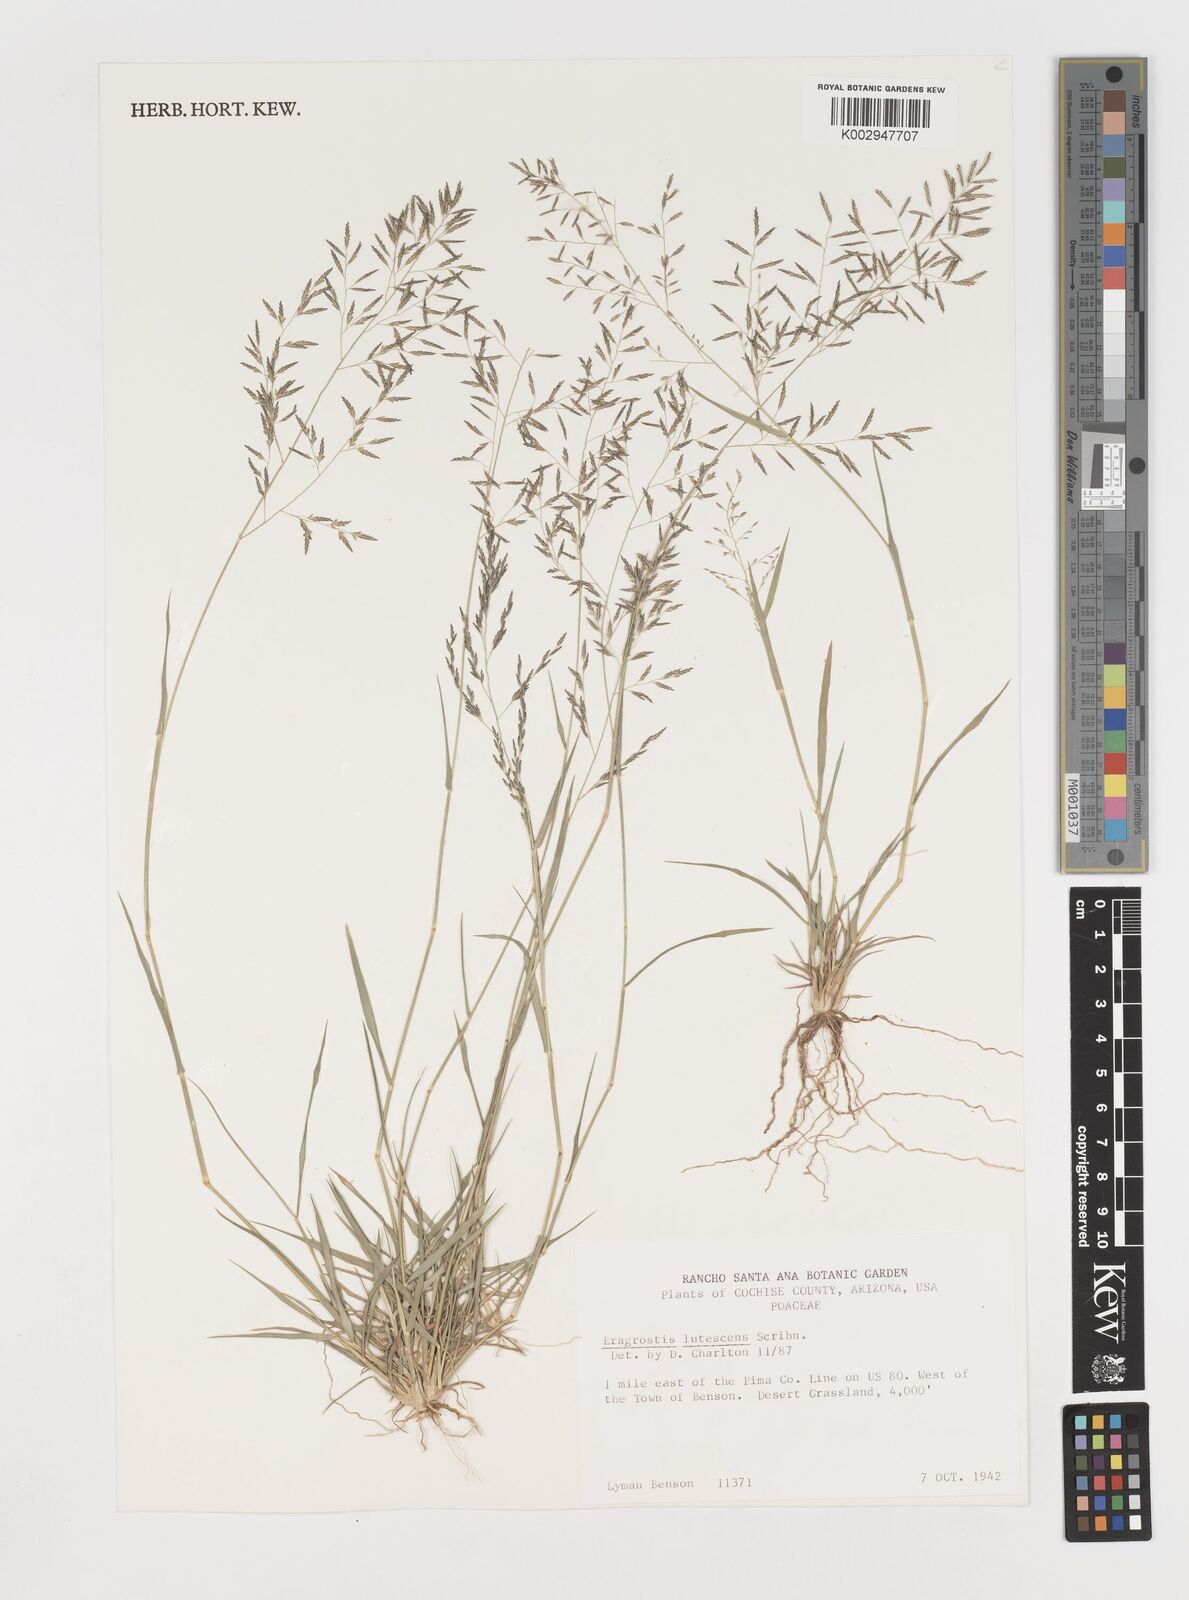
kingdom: Plantae
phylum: Tracheophyta
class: Liliopsida
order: Poales
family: Poaceae
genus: Eragrostis
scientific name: Eragrostis lutescens
